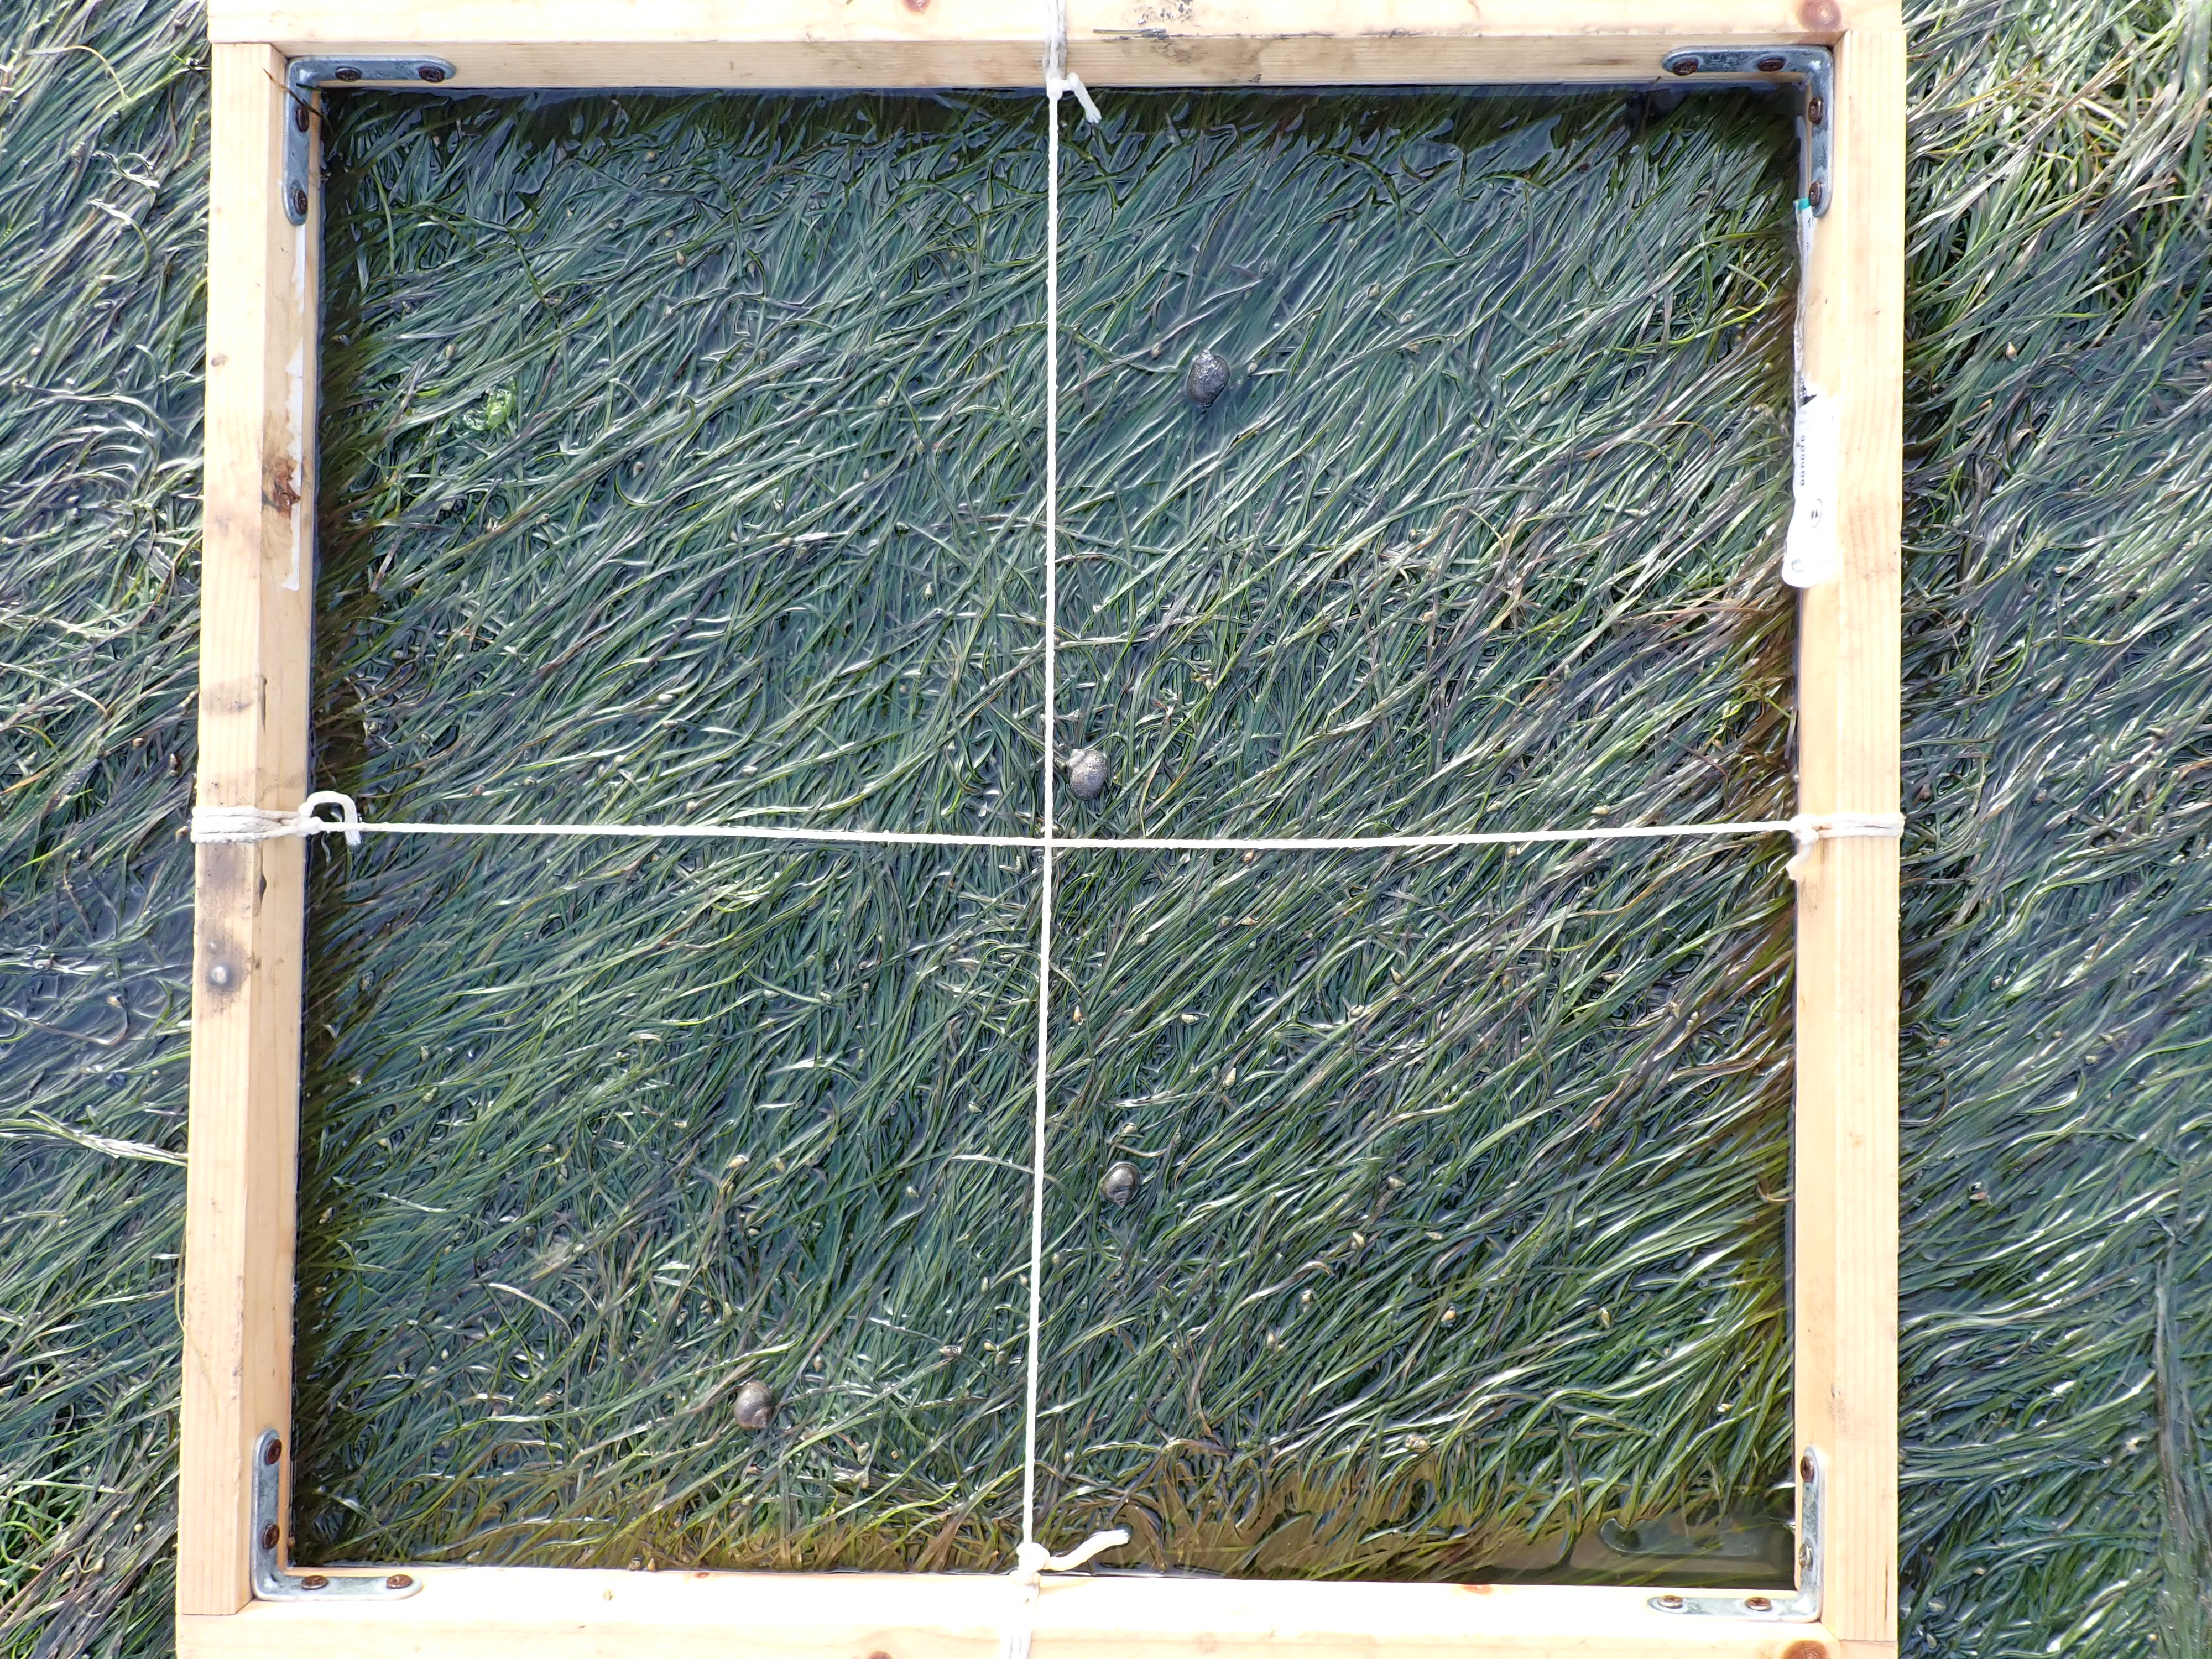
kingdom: Plantae
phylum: Tracheophyta
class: Liliopsida
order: Alismatales
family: Zosteraceae
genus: Zostera
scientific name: Zostera noltii
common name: Dwarf eelgrass
